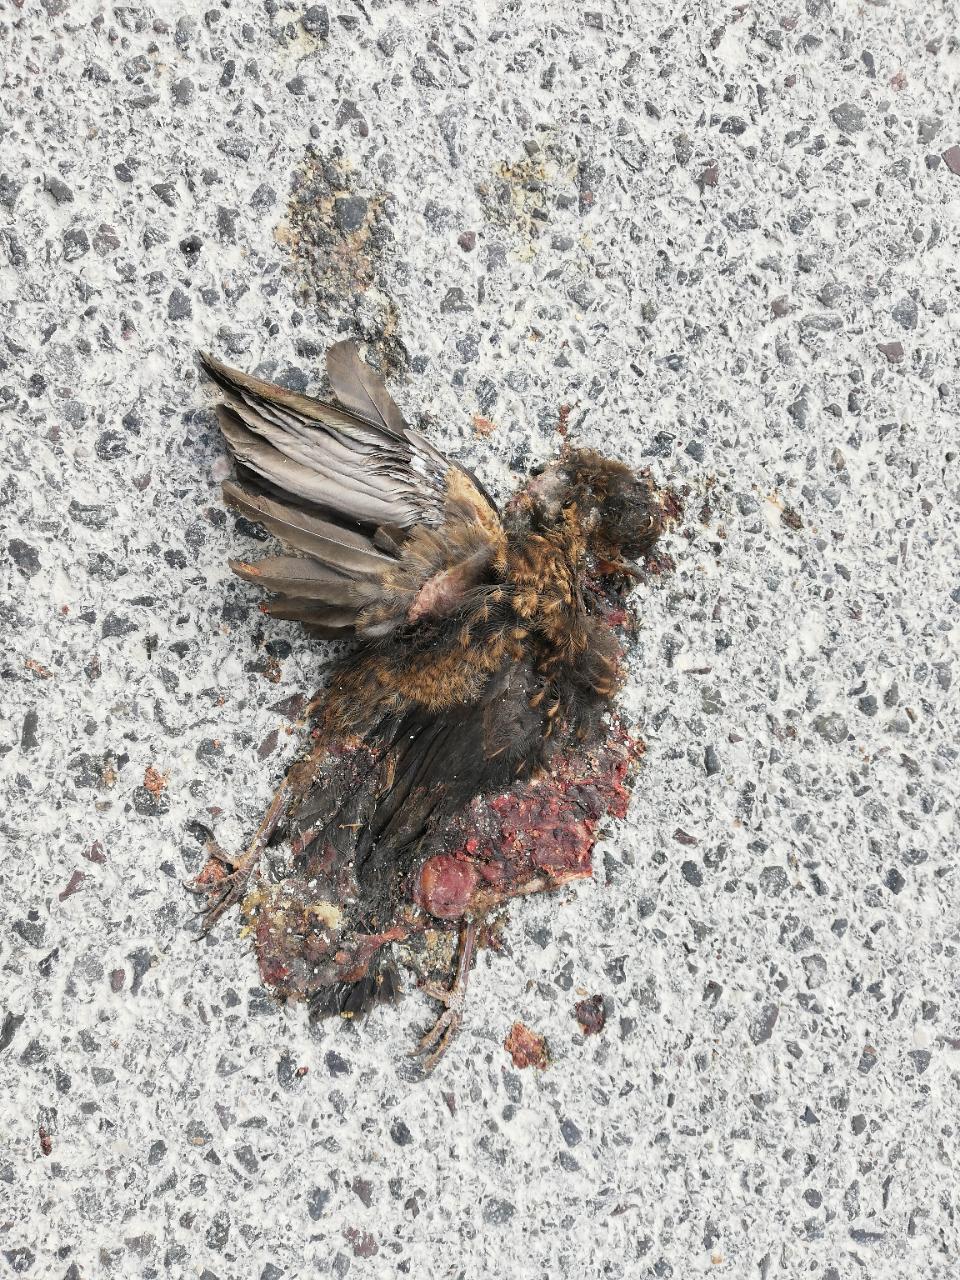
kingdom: Animalia
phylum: Chordata
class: Aves
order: Passeriformes
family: Turdidae
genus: Turdus
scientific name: Turdus merula
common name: Common blackbird
